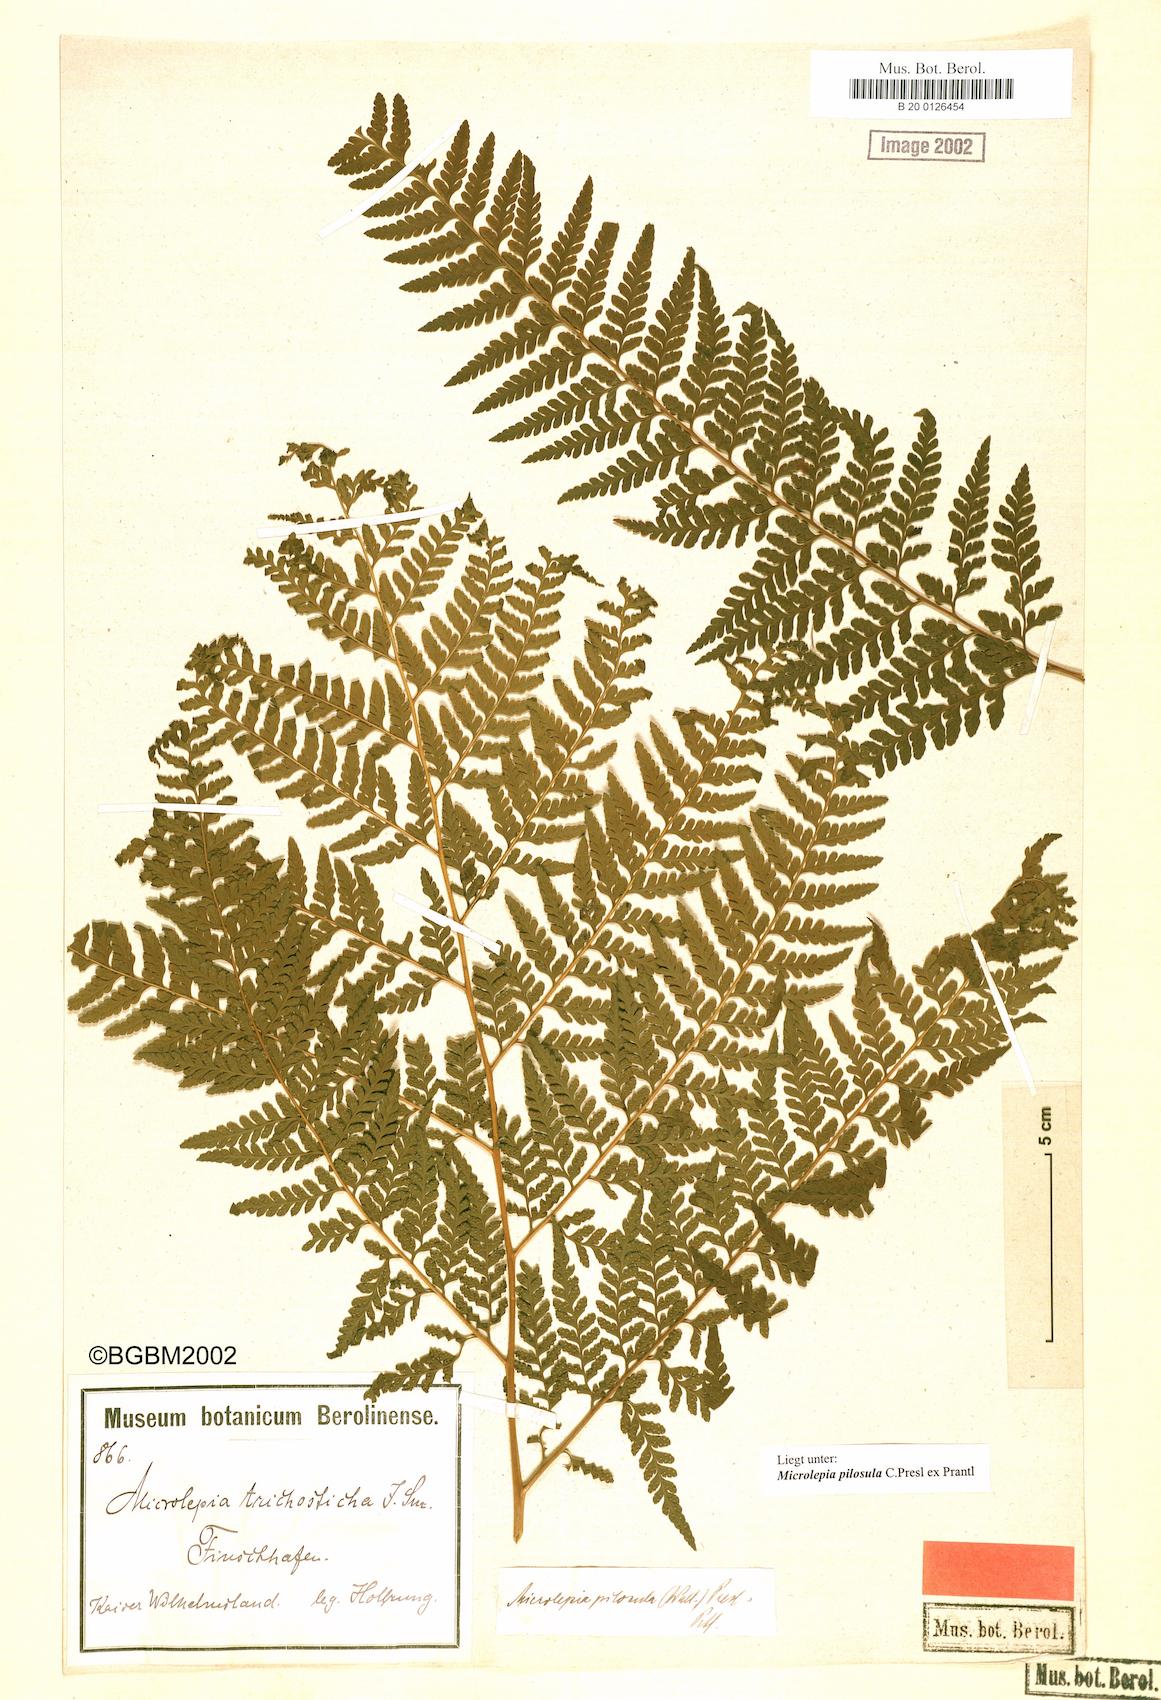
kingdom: Plantae
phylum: Tracheophyta
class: Polypodiopsida
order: Polypodiales
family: Dennstaedtiaceae
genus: Microlepia
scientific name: Microlepia speluncae
